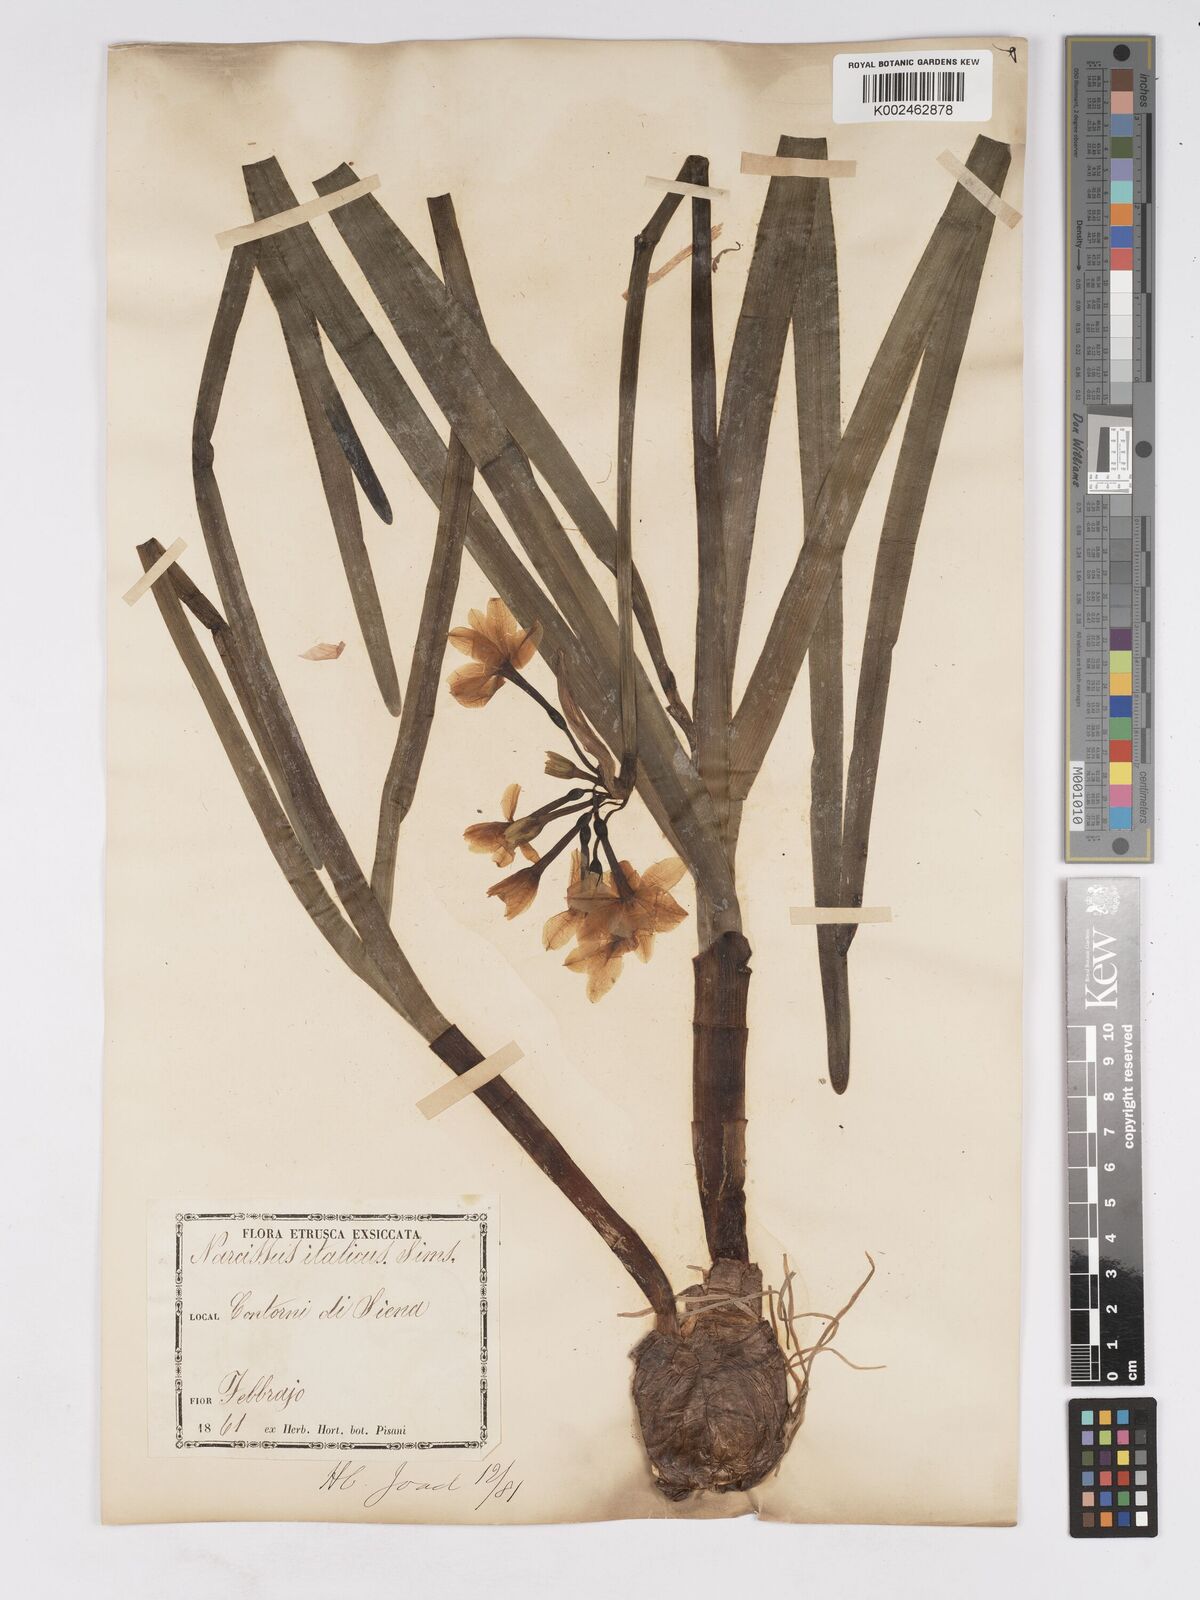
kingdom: Plantae
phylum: Tracheophyta
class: Liliopsida
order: Asparagales
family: Amaryllidaceae
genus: Narcissus
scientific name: Narcissus tazetta
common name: Bunch-flowered daffodil
